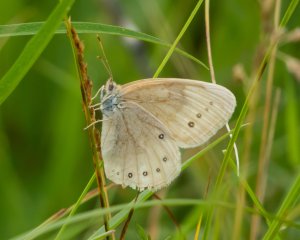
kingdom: Animalia
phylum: Arthropoda
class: Insecta
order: Lepidoptera
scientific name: Lepidoptera
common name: Butterflies
